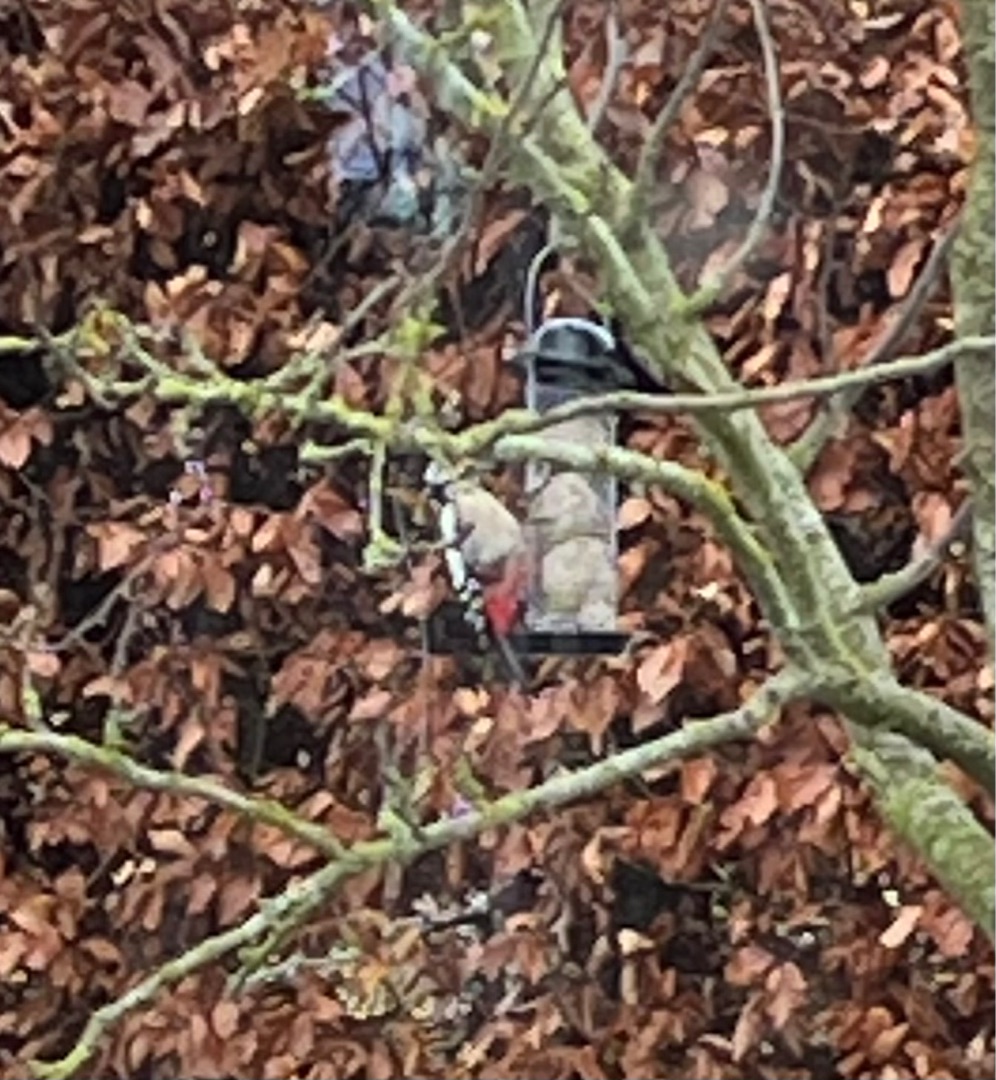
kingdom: Animalia
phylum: Chordata
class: Aves
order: Piciformes
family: Picidae
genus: Dendrocopos
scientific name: Dendrocopos major
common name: Stor flagspætte
